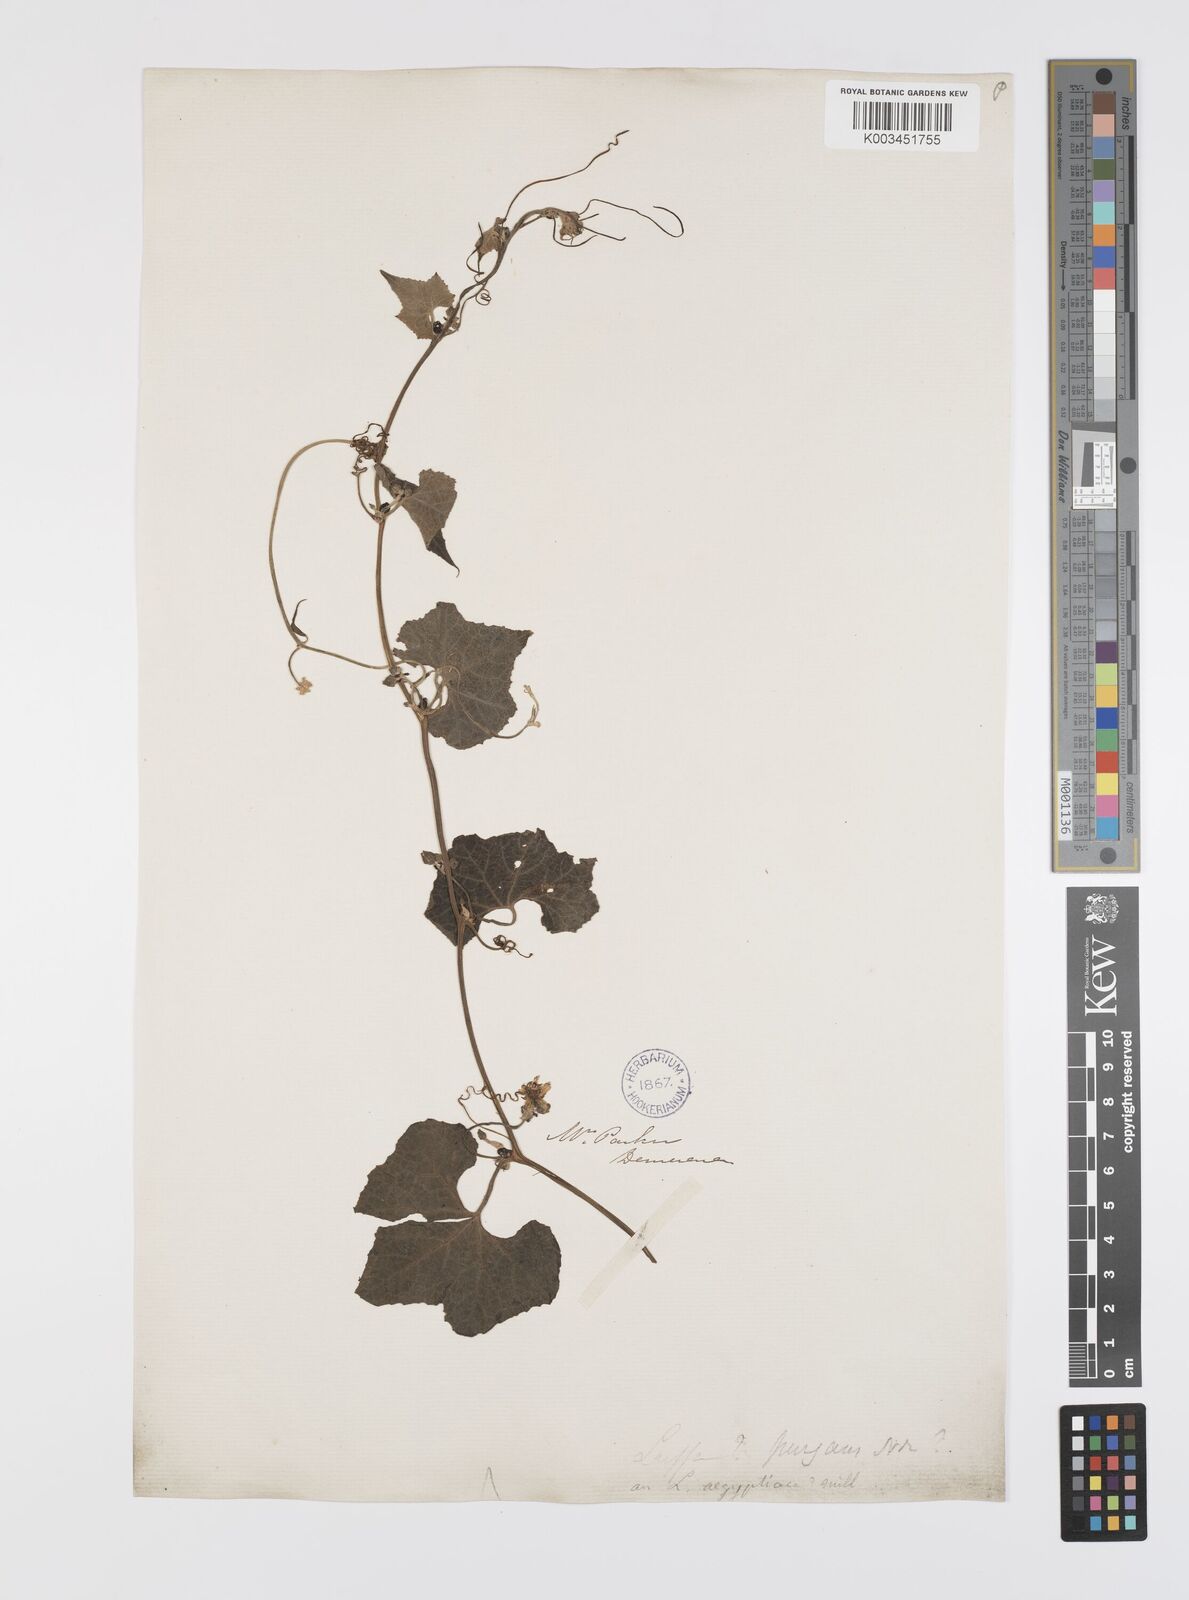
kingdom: Plantae
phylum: Tracheophyta
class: Magnoliopsida
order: Cucurbitales
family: Cucurbitaceae
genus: Luffa
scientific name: Luffa operculata
